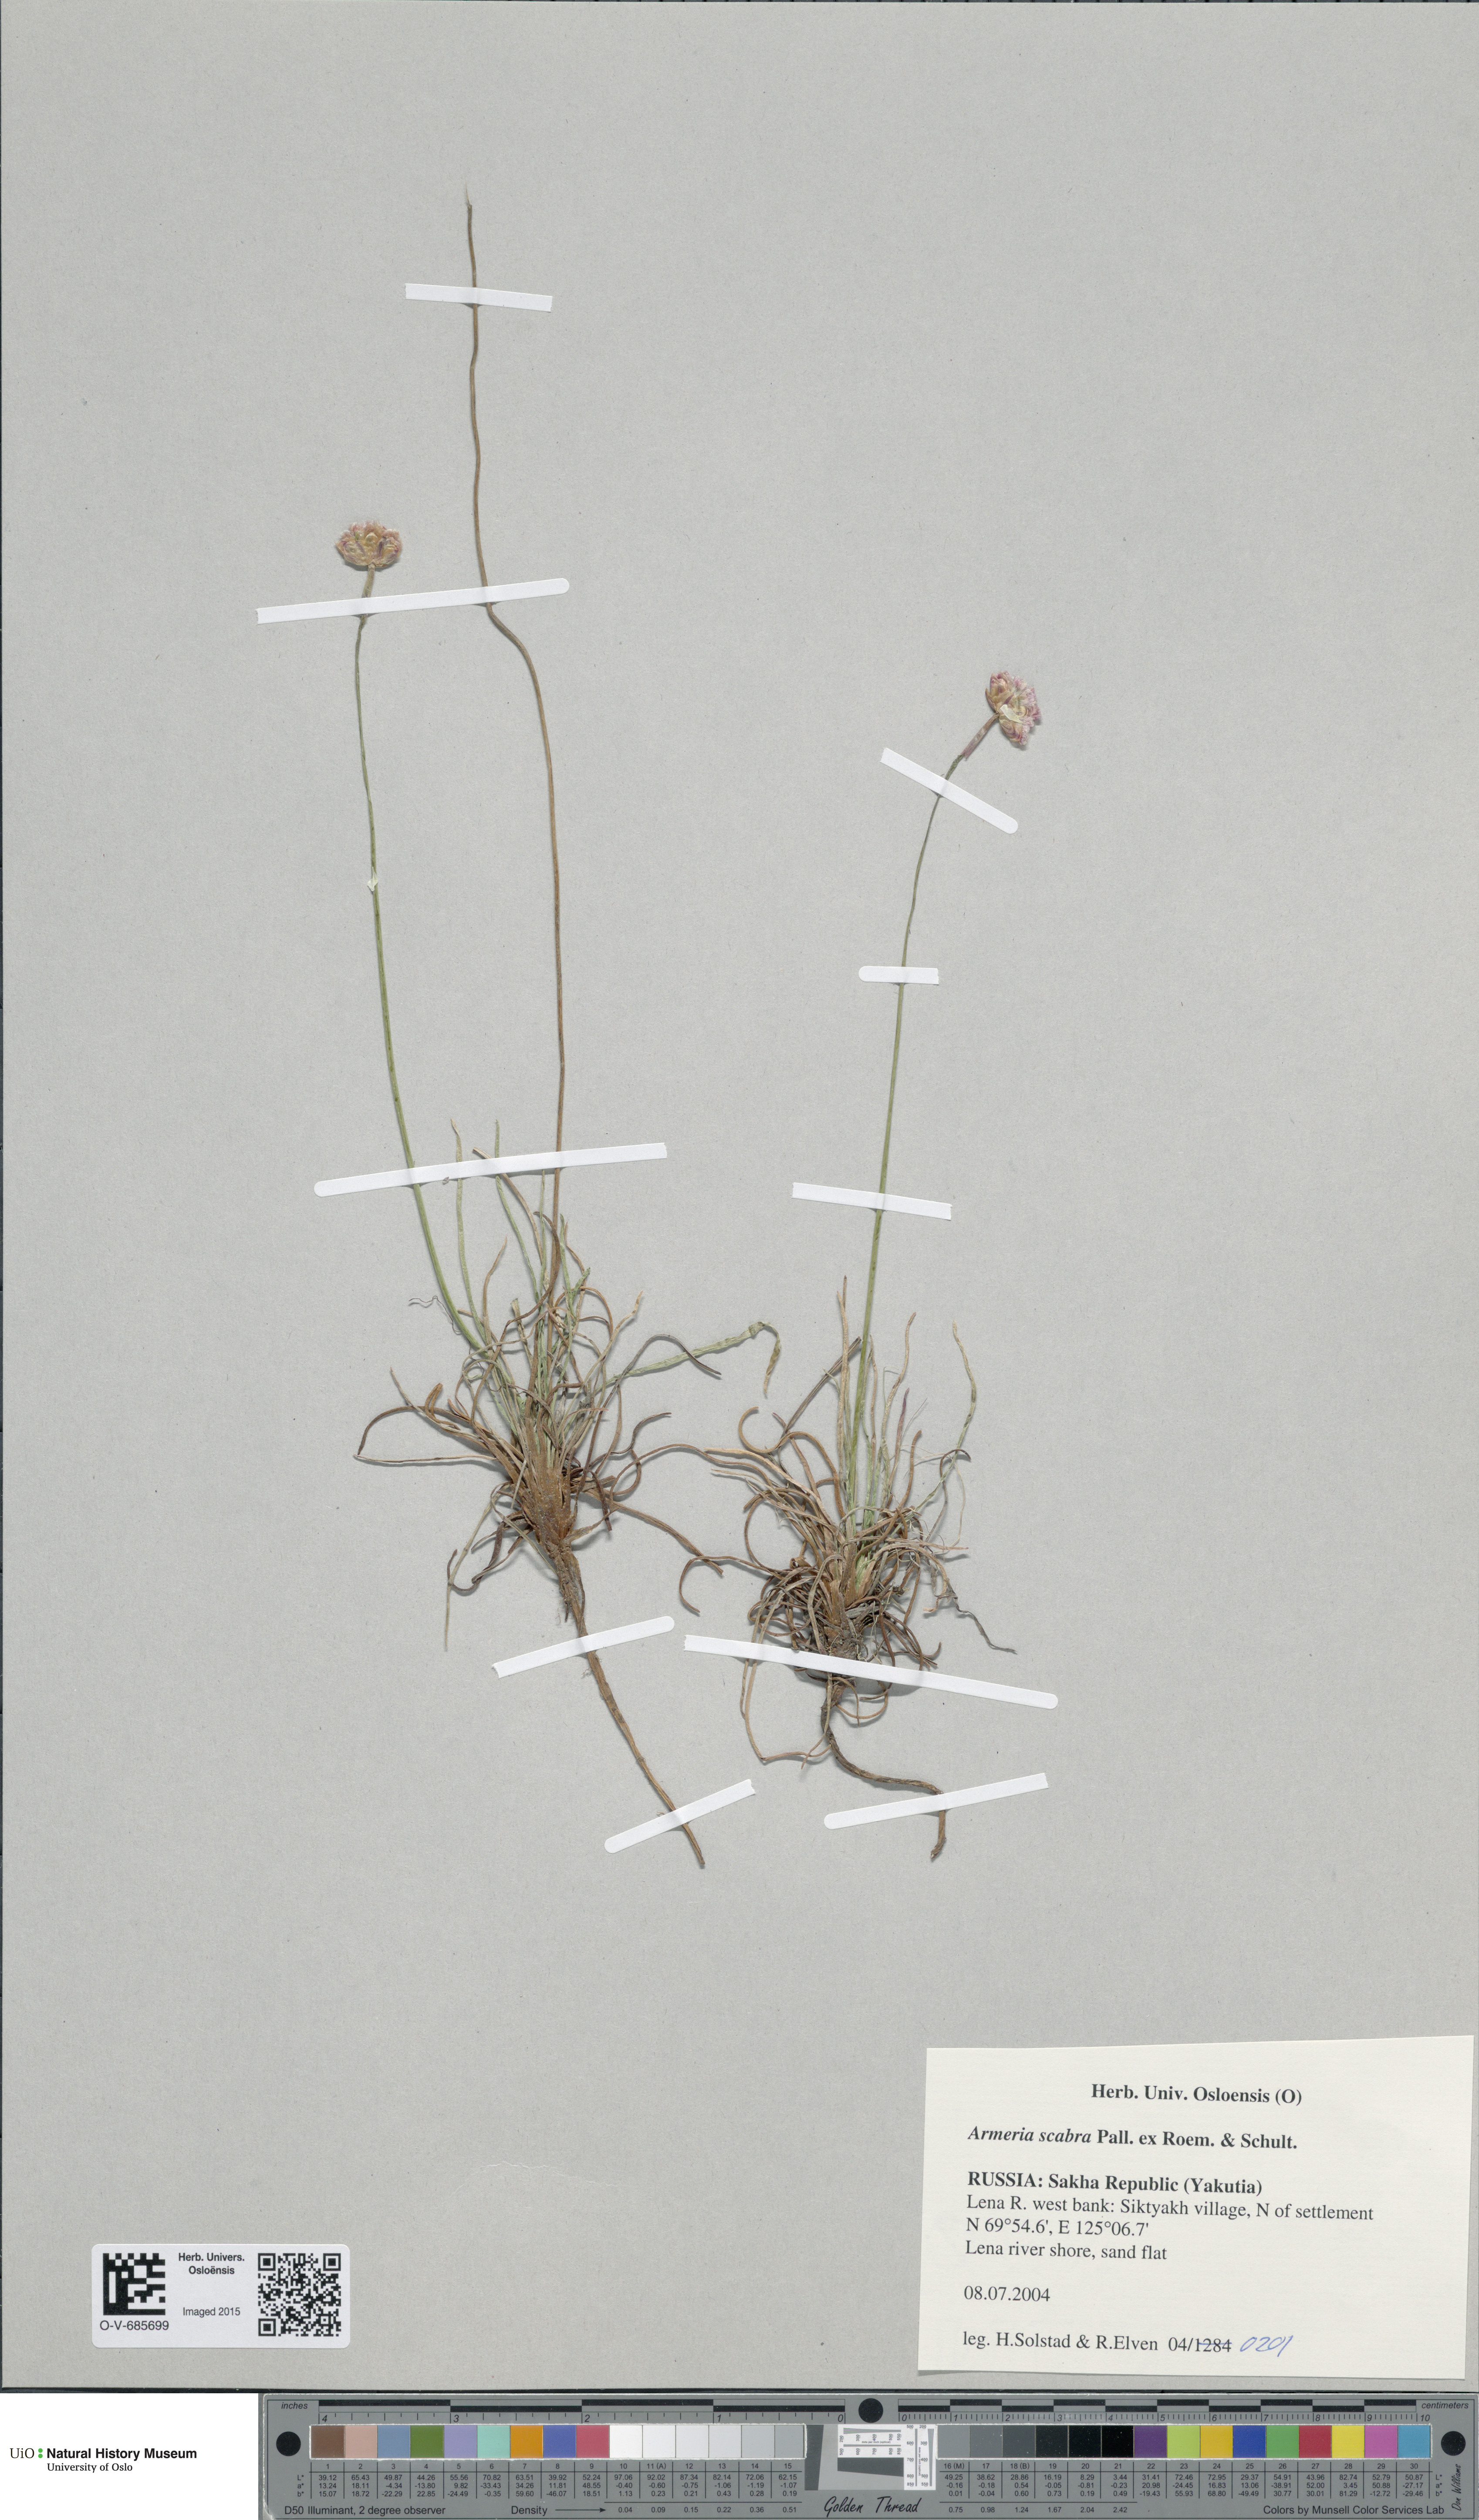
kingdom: Plantae
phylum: Tracheophyta
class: Magnoliopsida
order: Caryophyllales
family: Plumbaginaceae
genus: Armeria
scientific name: Armeria maritima
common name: Thrift
